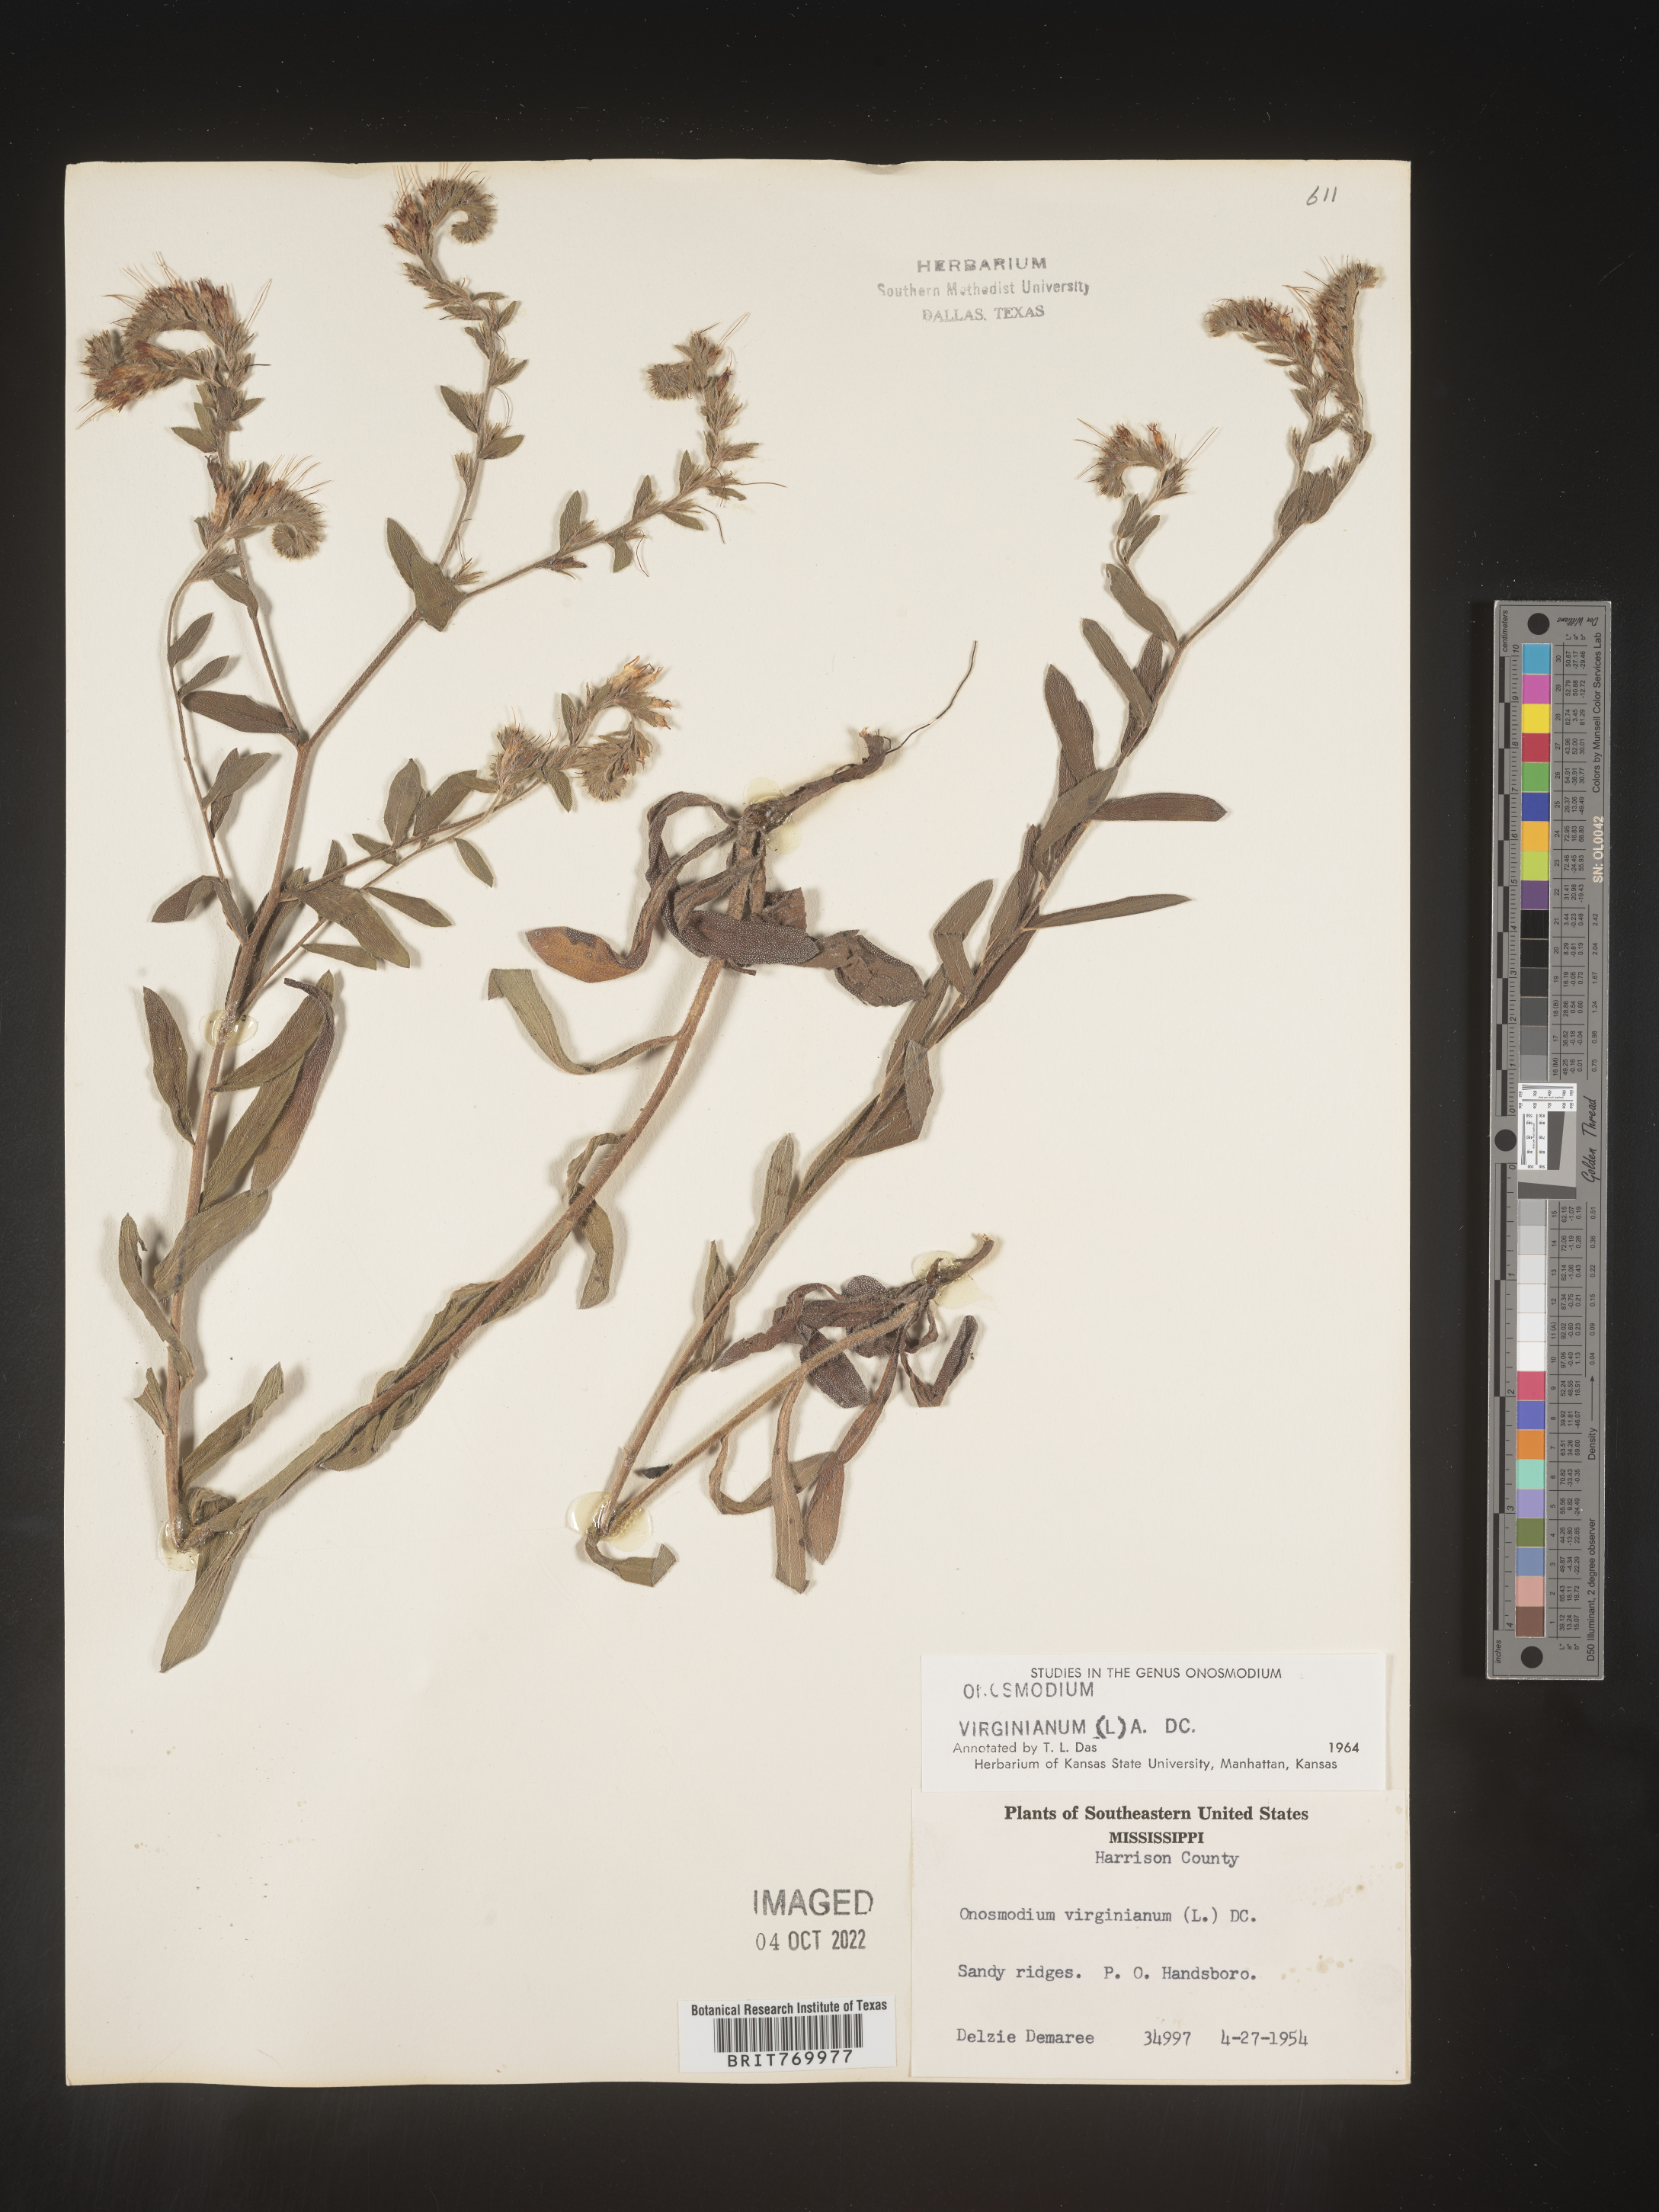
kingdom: Plantae
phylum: Tracheophyta
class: Magnoliopsida
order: Boraginales
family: Boraginaceae
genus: Lithospermum
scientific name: Lithospermum virginianum
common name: Eastern false gromwell
